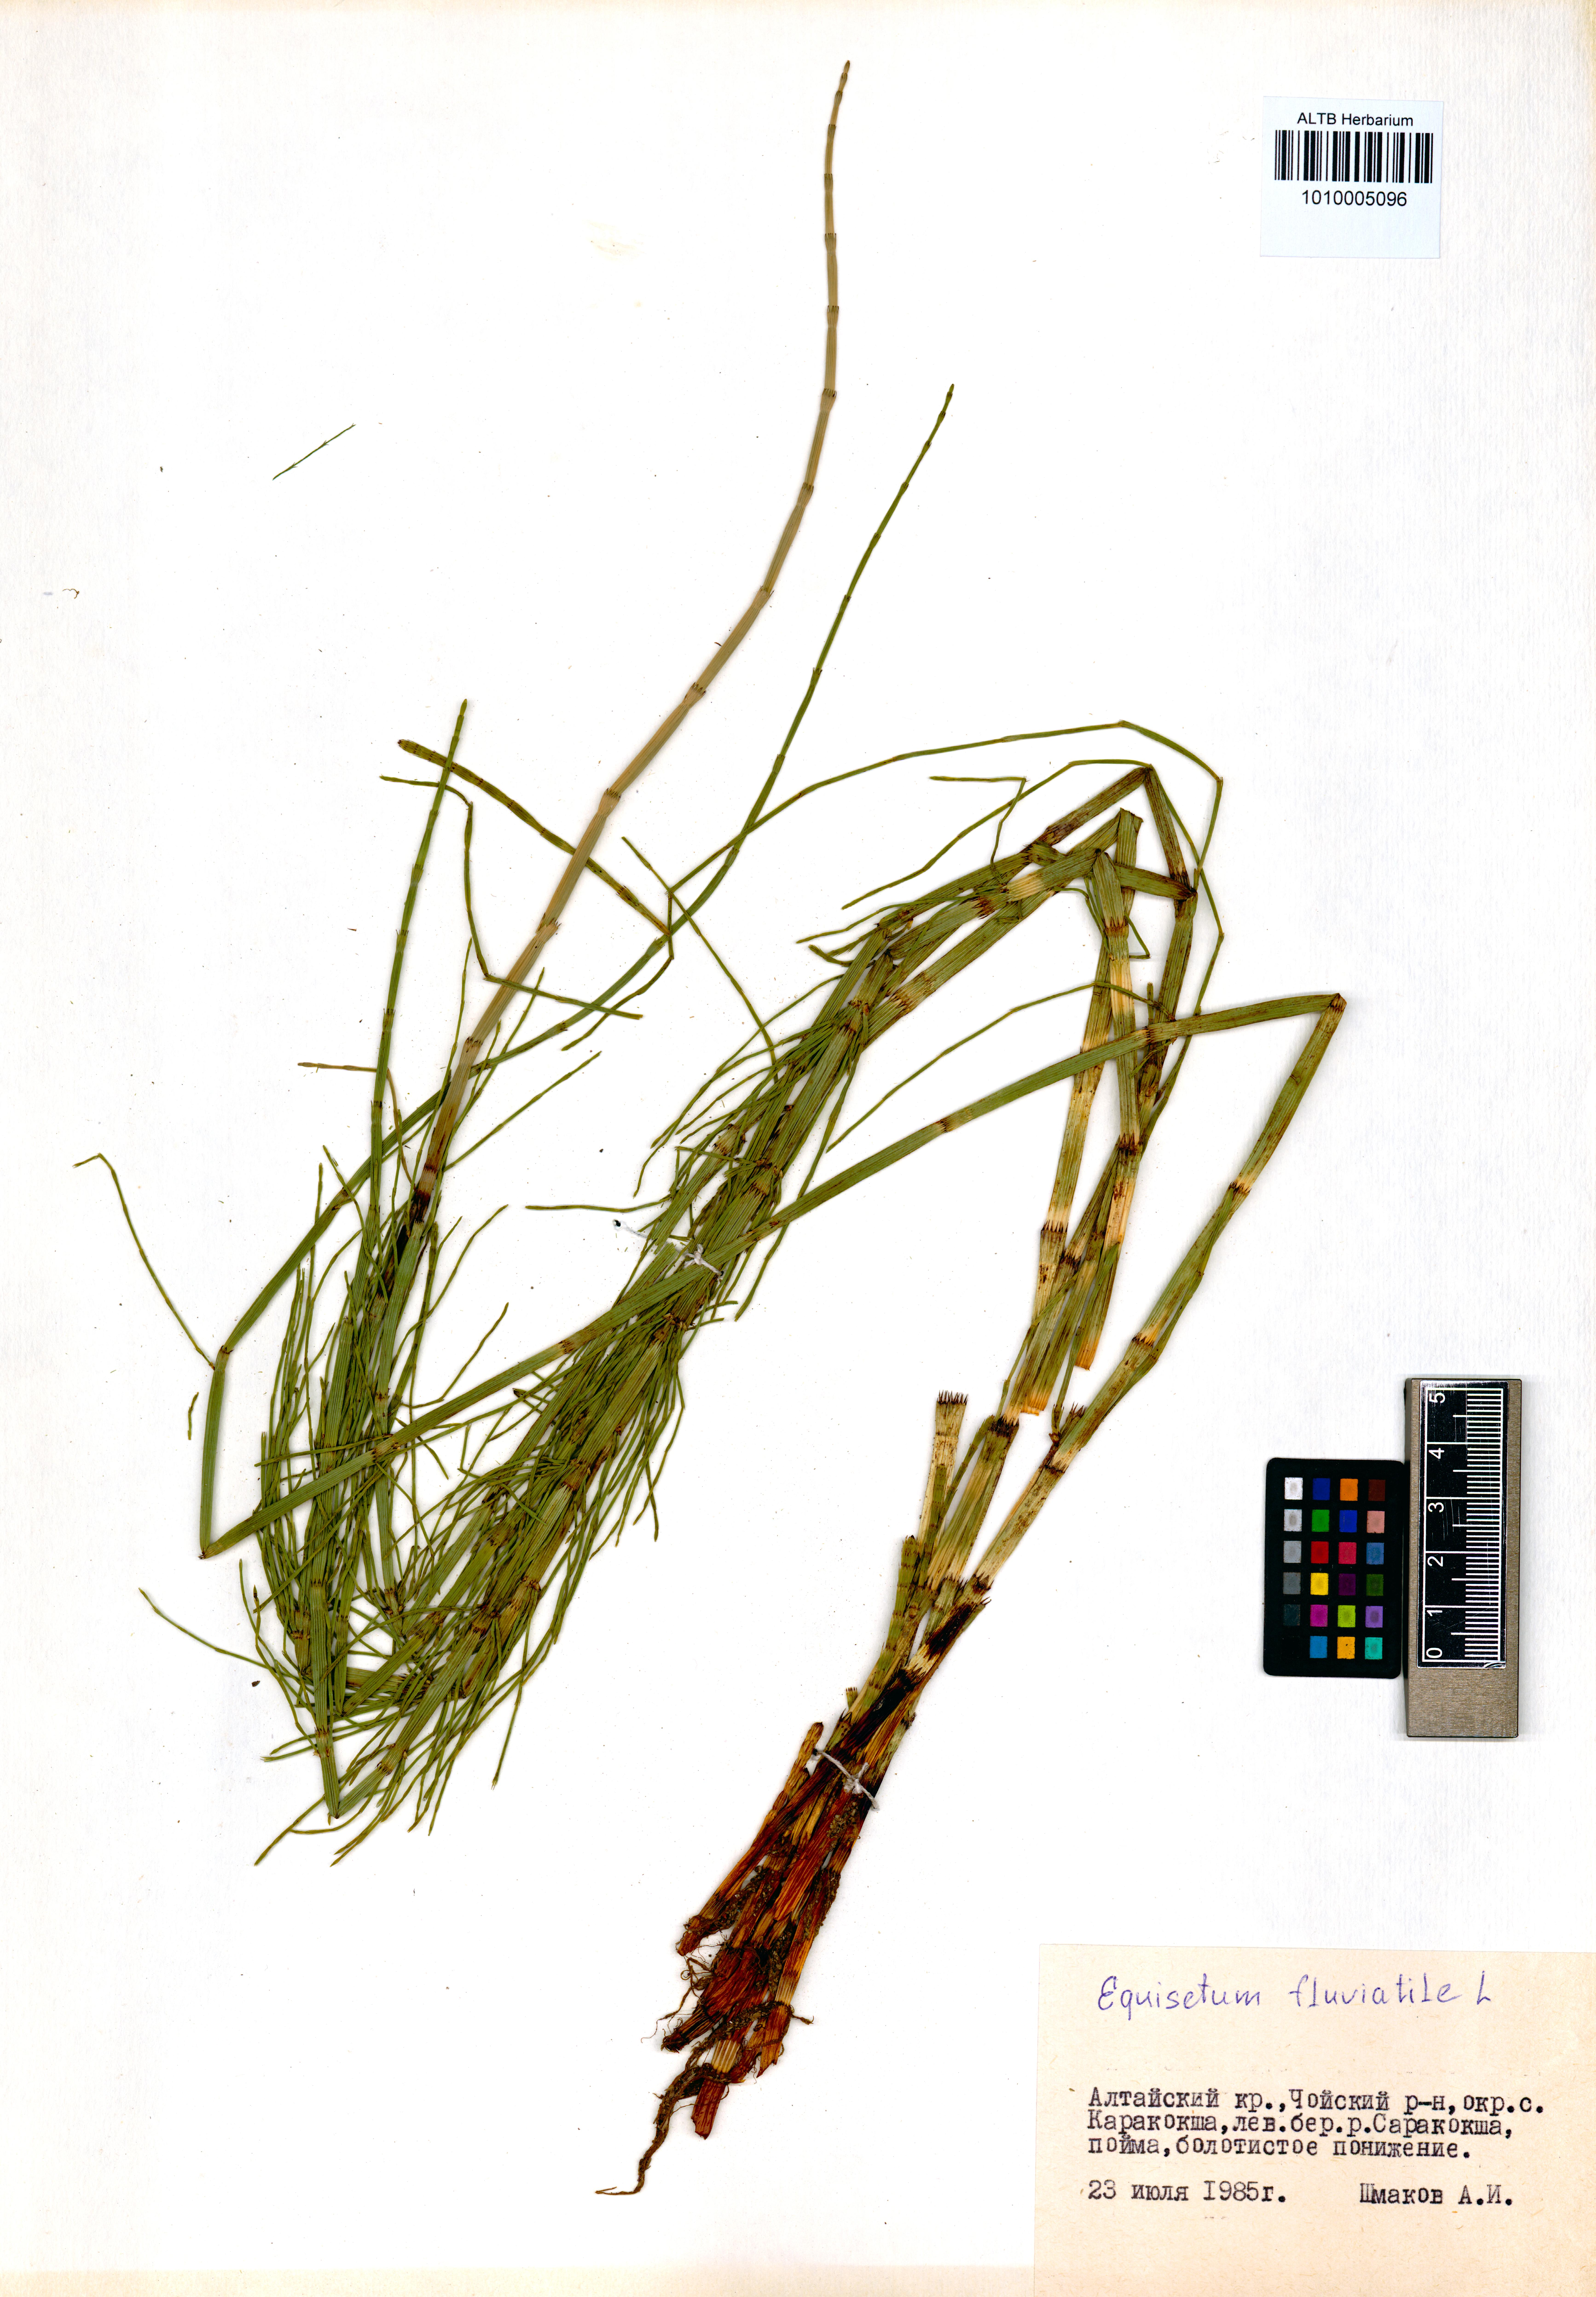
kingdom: Plantae
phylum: Tracheophyta
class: Polypodiopsida
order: Equisetales
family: Equisetaceae
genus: Equisetum
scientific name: Equisetum fluviatile
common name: Water horsetail
